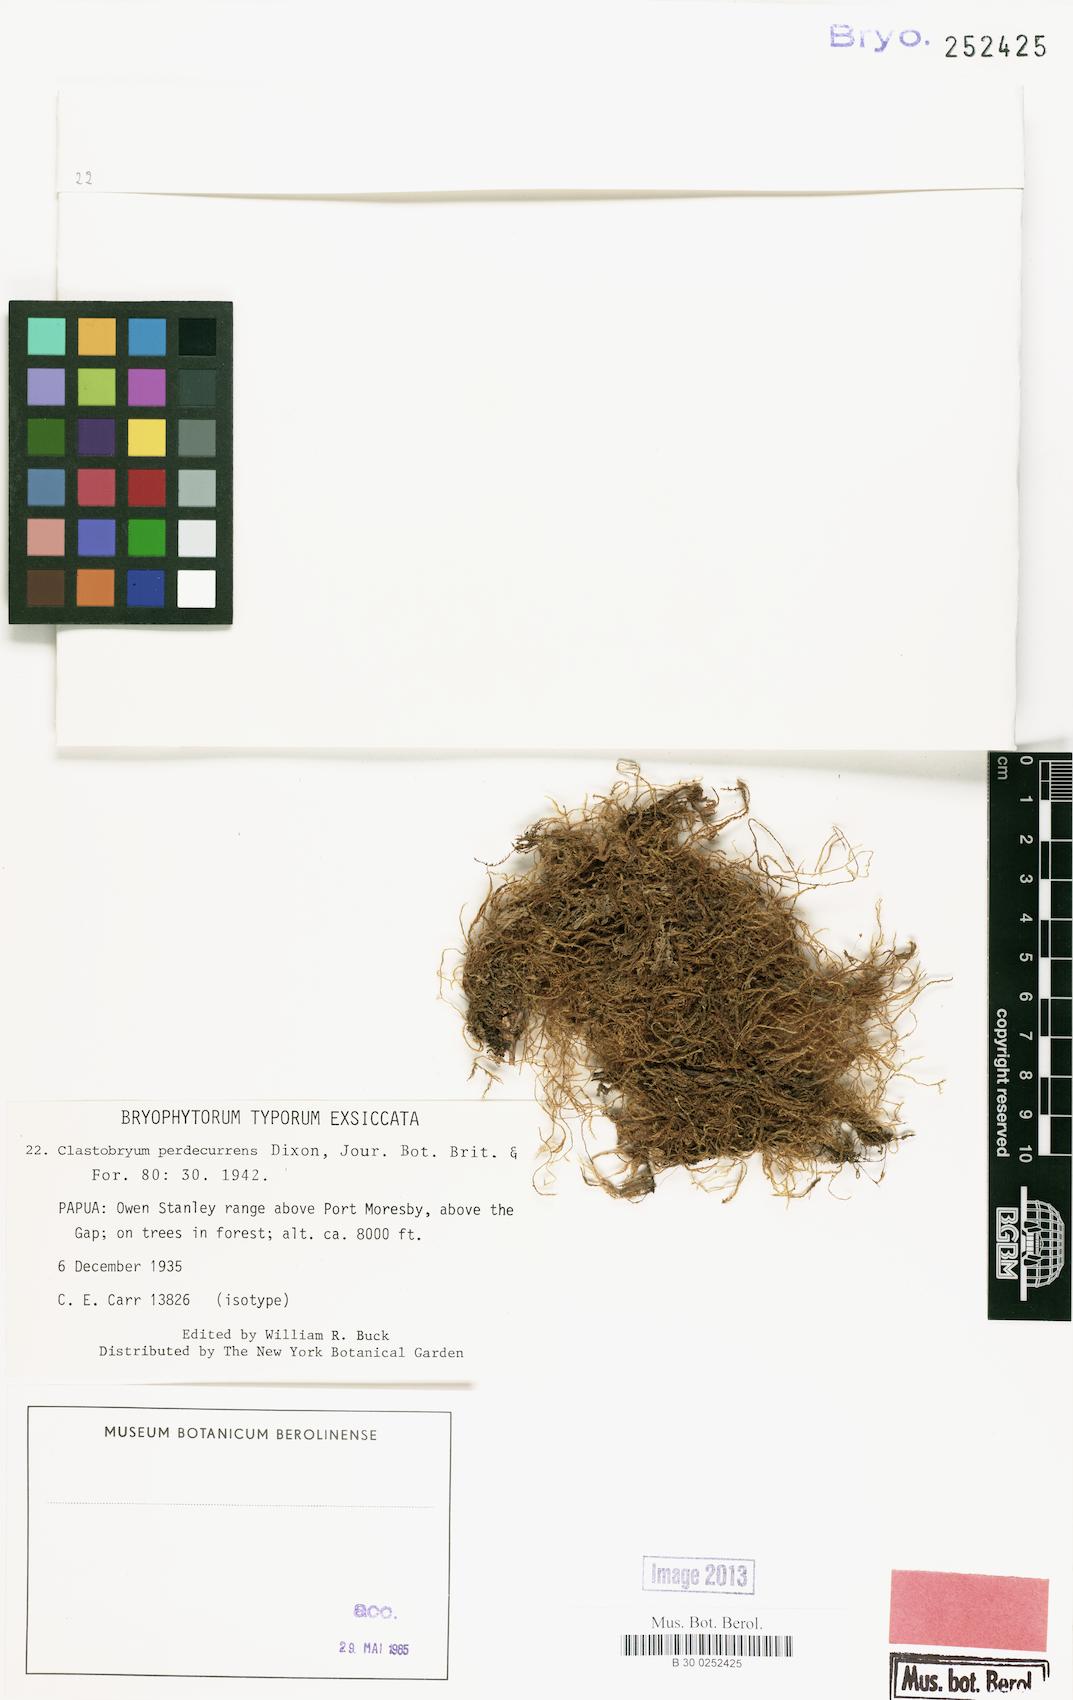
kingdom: Plantae
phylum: Bryophyta
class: Bryopsida
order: Hypnales
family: Pylaisiadelphaceae
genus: Aptychella
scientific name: Aptychella perdecurrens
